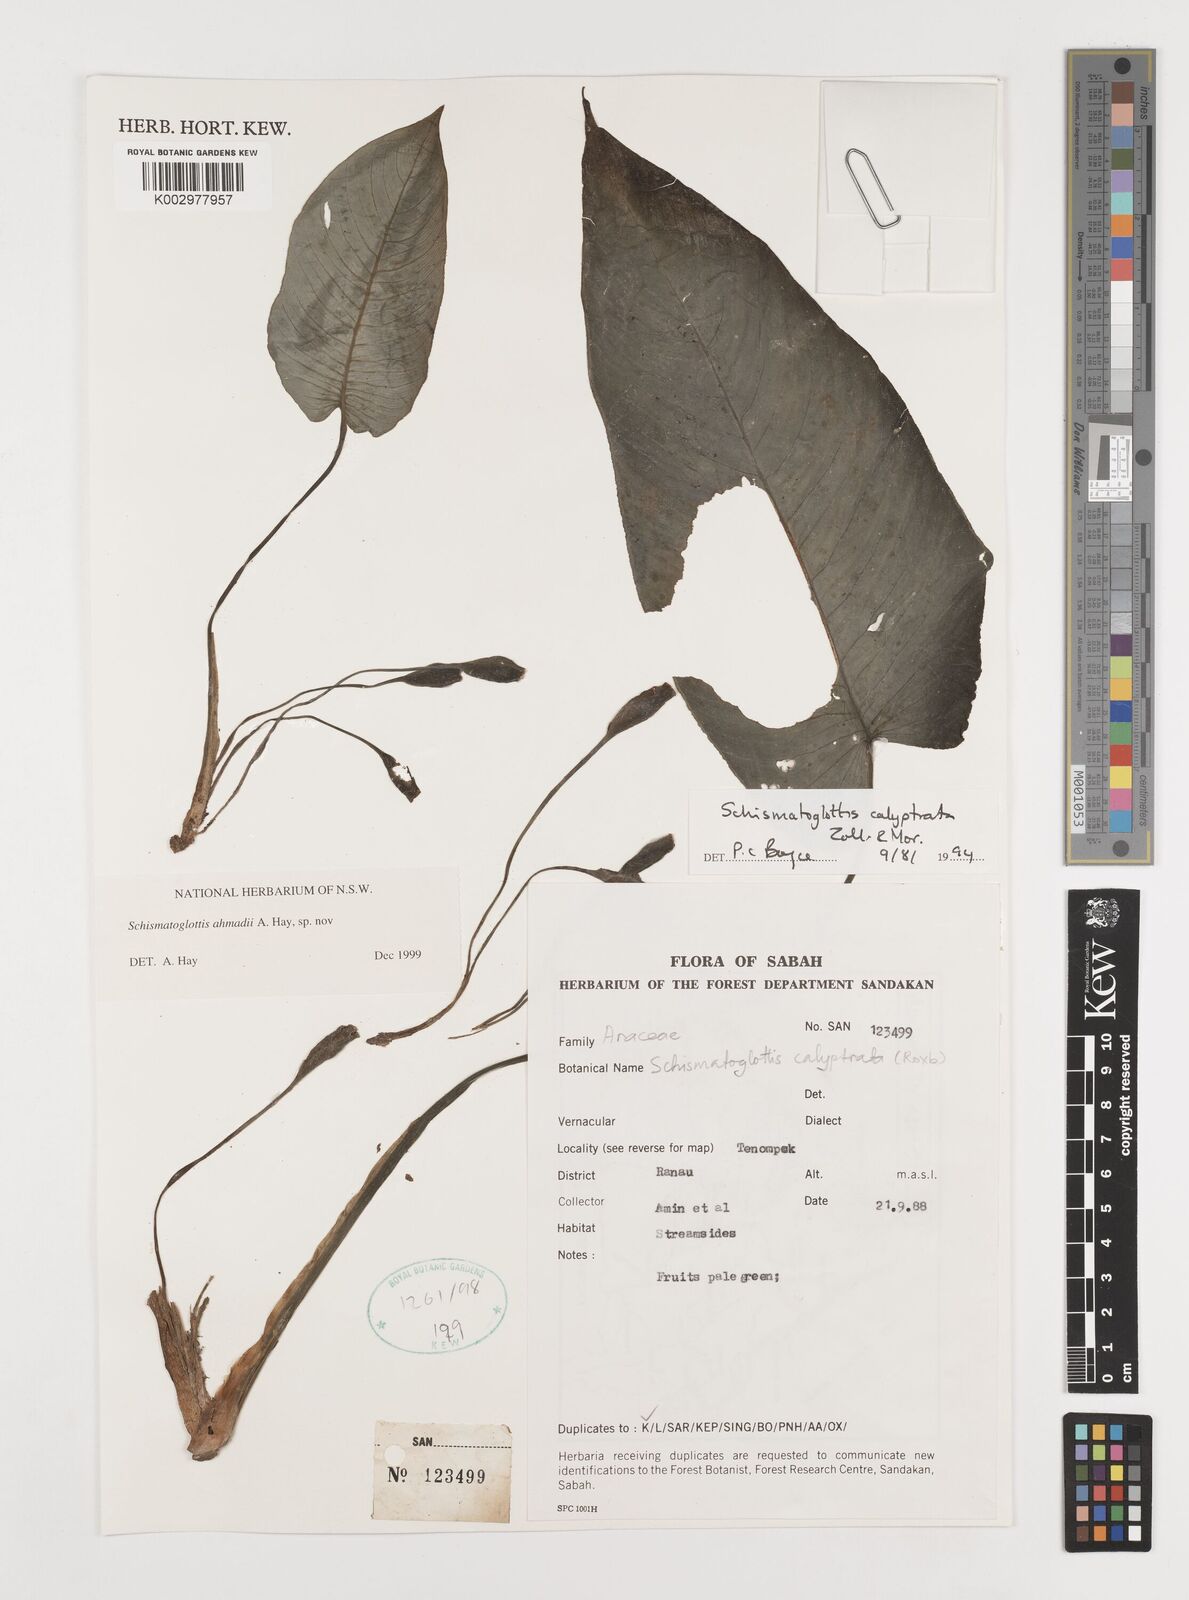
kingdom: Plantae
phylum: Tracheophyta
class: Liliopsida
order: Alismatales
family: Araceae
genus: Schismatoglottis
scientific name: Schismatoglottis ahmadii
